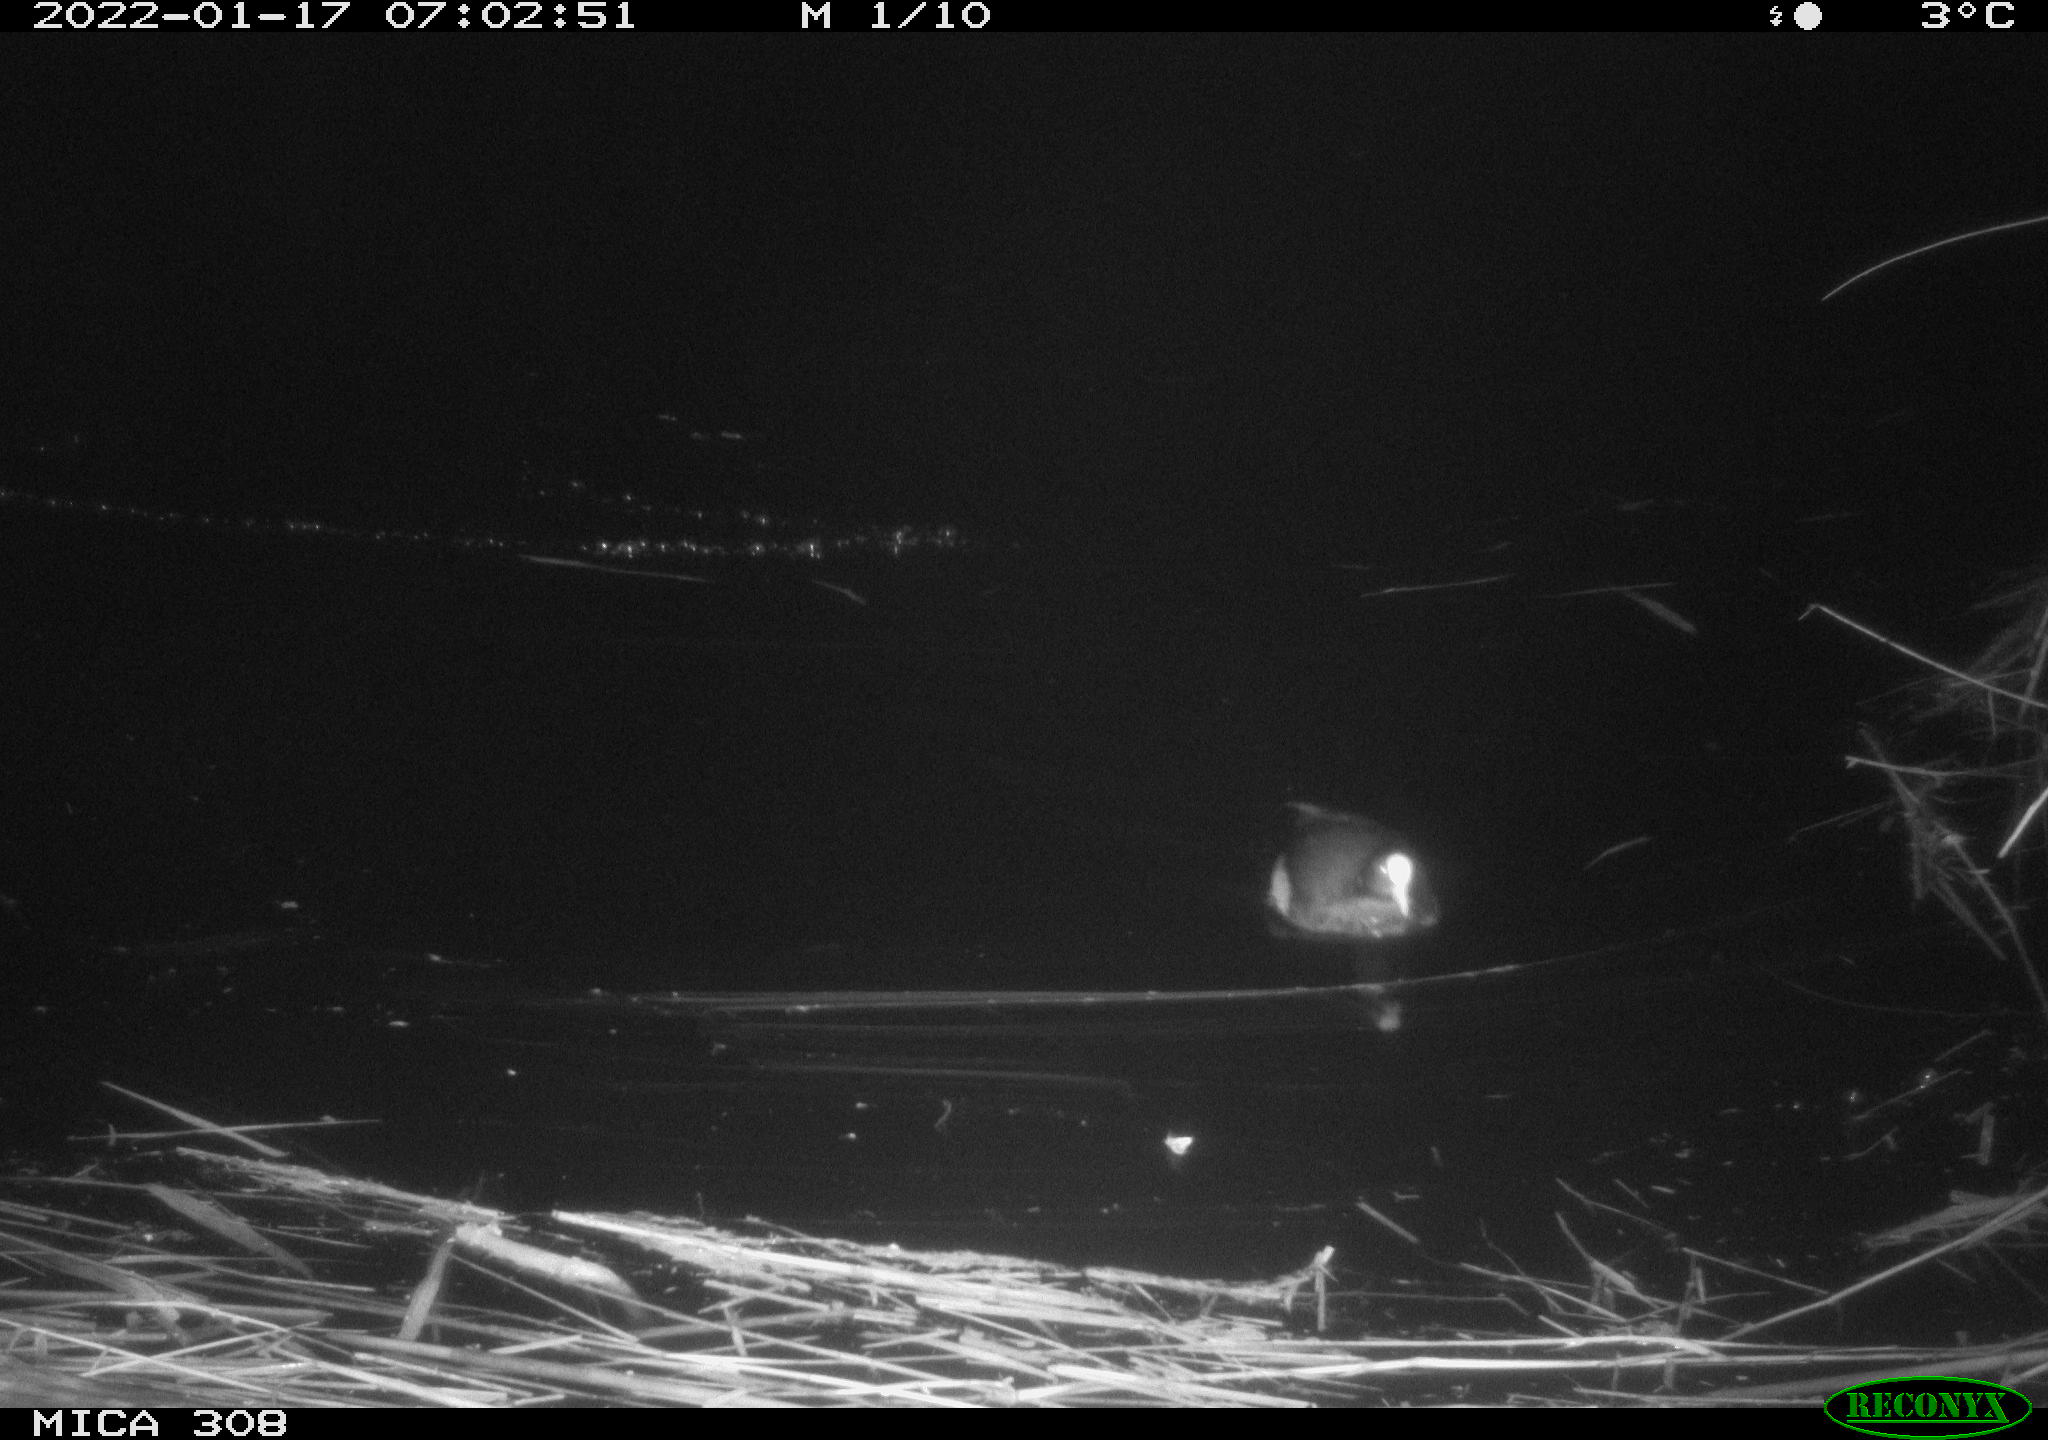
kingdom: Animalia
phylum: Chordata
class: Aves
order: Gruiformes
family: Rallidae
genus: Gallinula
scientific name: Gallinula chloropus
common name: Common moorhen
